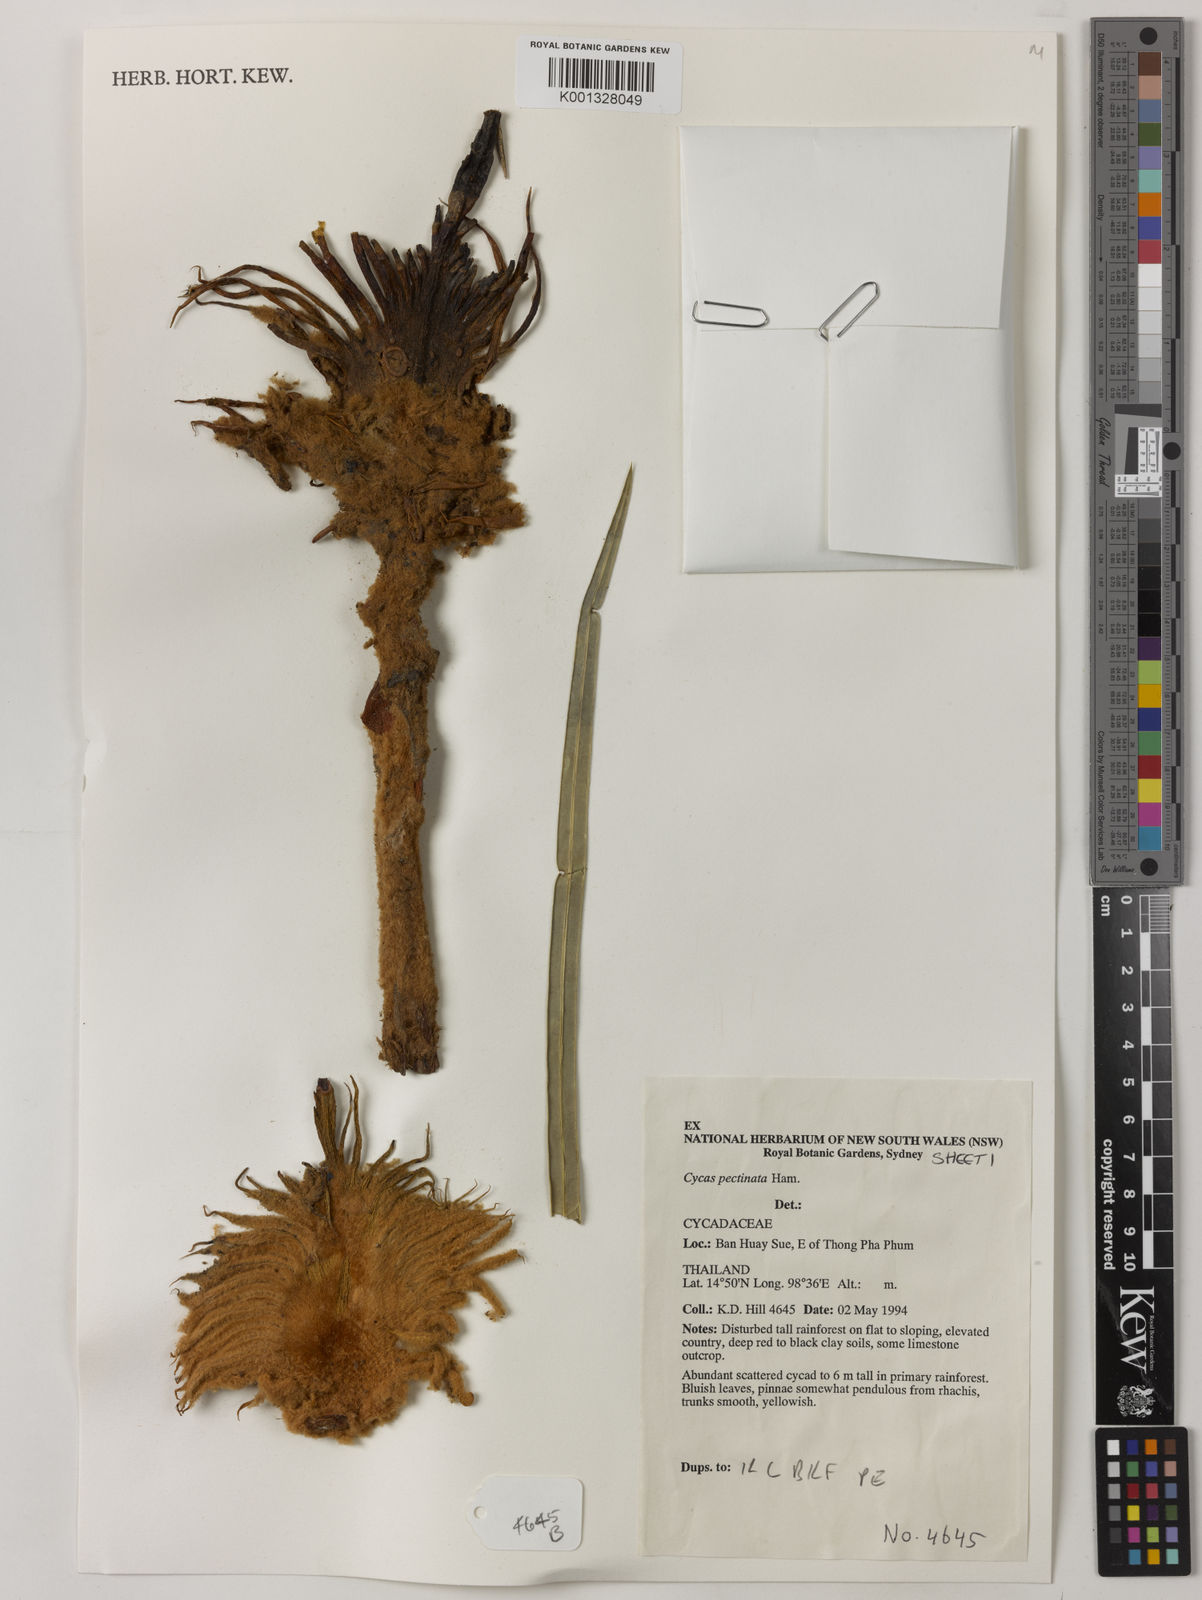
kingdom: Plantae
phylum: Tracheophyta
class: Cycadopsida
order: Cycadales
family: Cycadaceae
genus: Cycas
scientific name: Cycas pectinata
